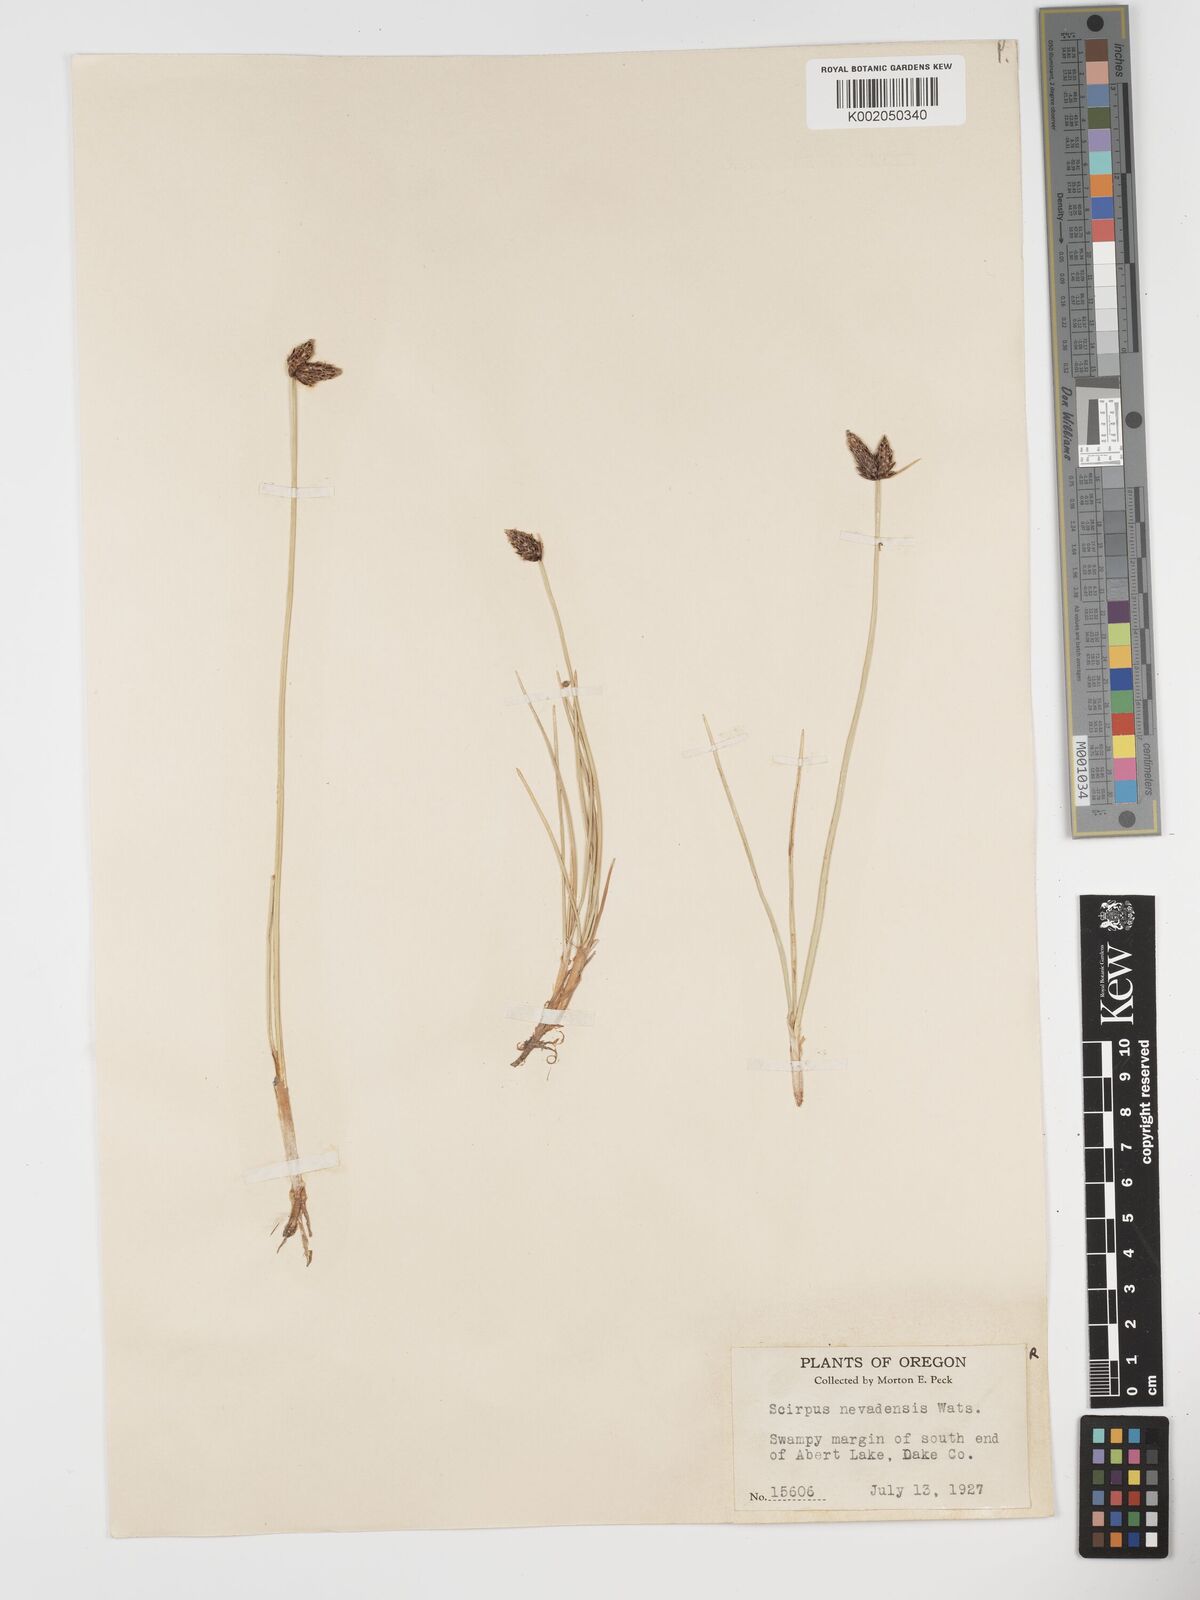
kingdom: Plantae
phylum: Tracheophyta
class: Liliopsida
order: Poales
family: Cyperaceae
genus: Amphiscirpus
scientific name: Amphiscirpus nevadensis
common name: Nevada bulrush
